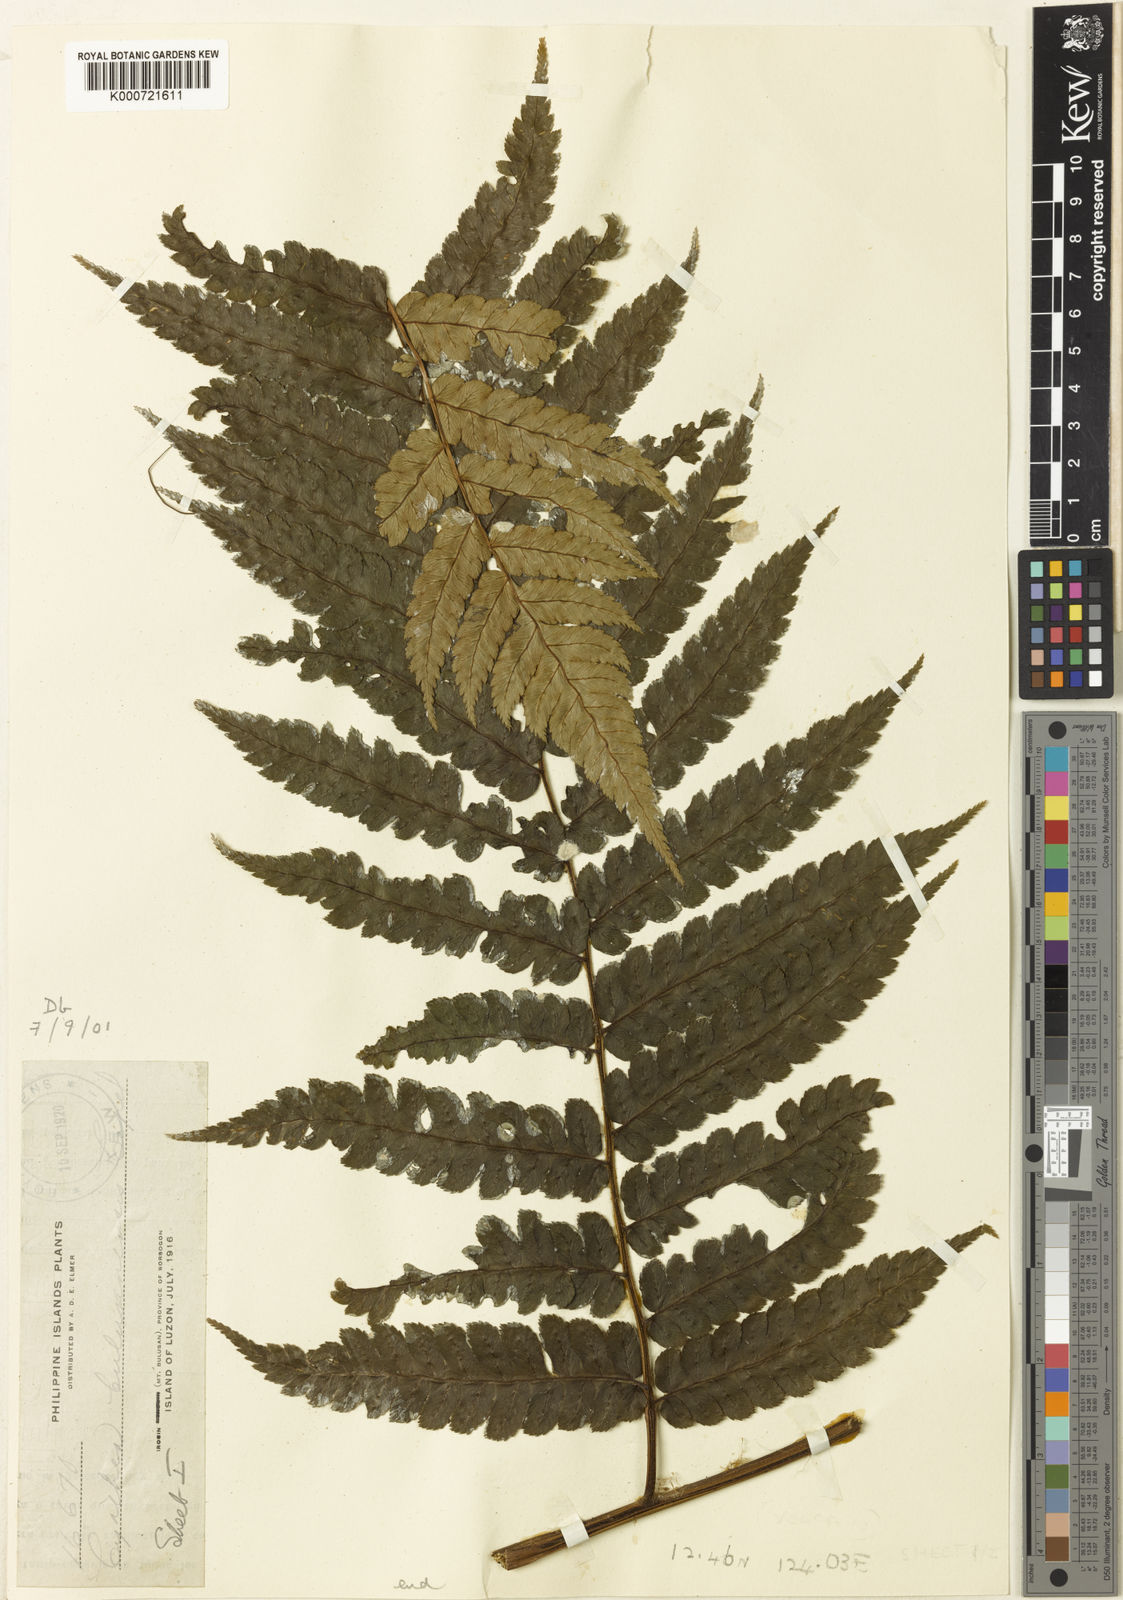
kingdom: Plantae
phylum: Tracheophyta
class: Polypodiopsida
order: Cyatheales
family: Cyatheaceae
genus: Sphaeropteris
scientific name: Sphaeropteris integra
